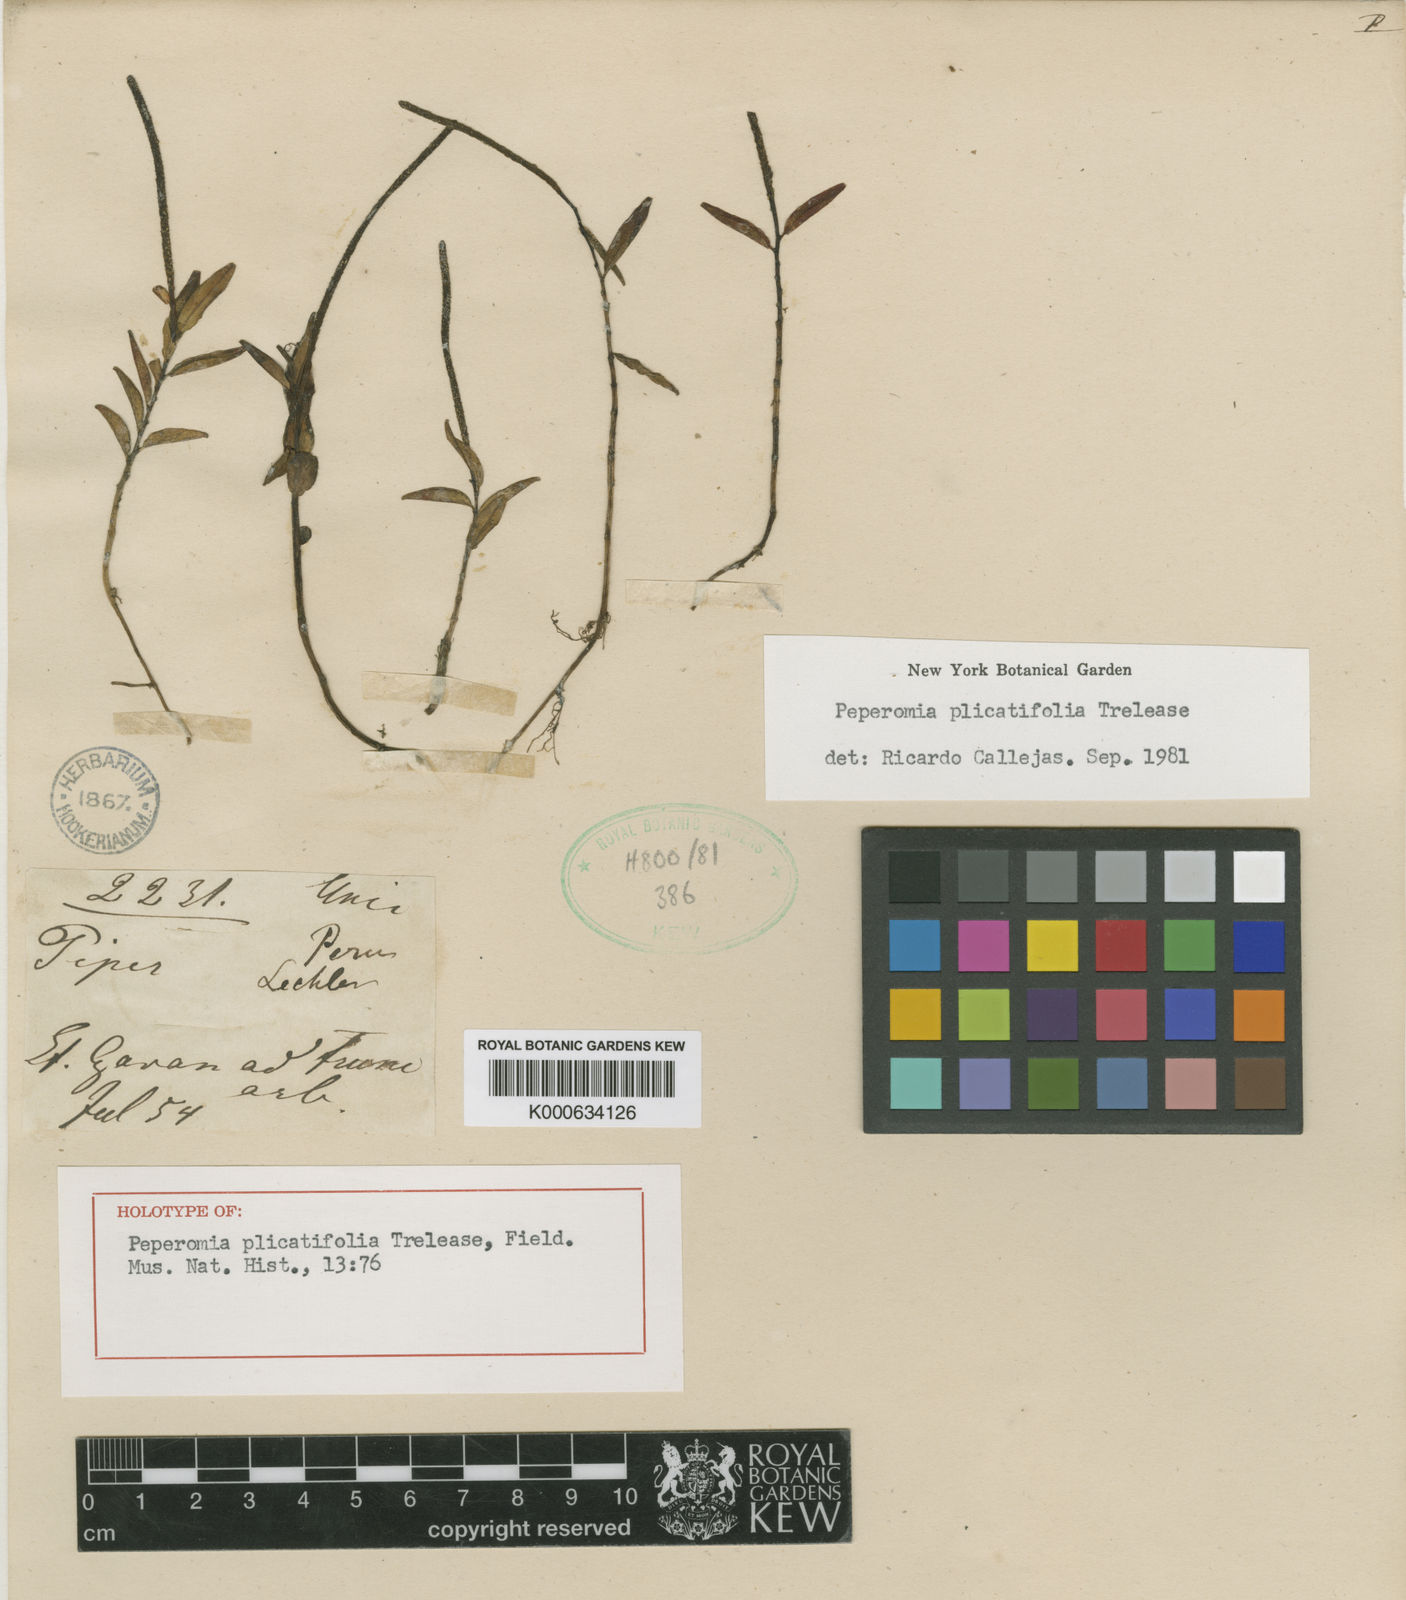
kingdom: Plantae
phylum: Tracheophyta
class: Magnoliopsida
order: Piperales
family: Piperaceae
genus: Peperomia
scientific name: Peperomia plicatifolia
